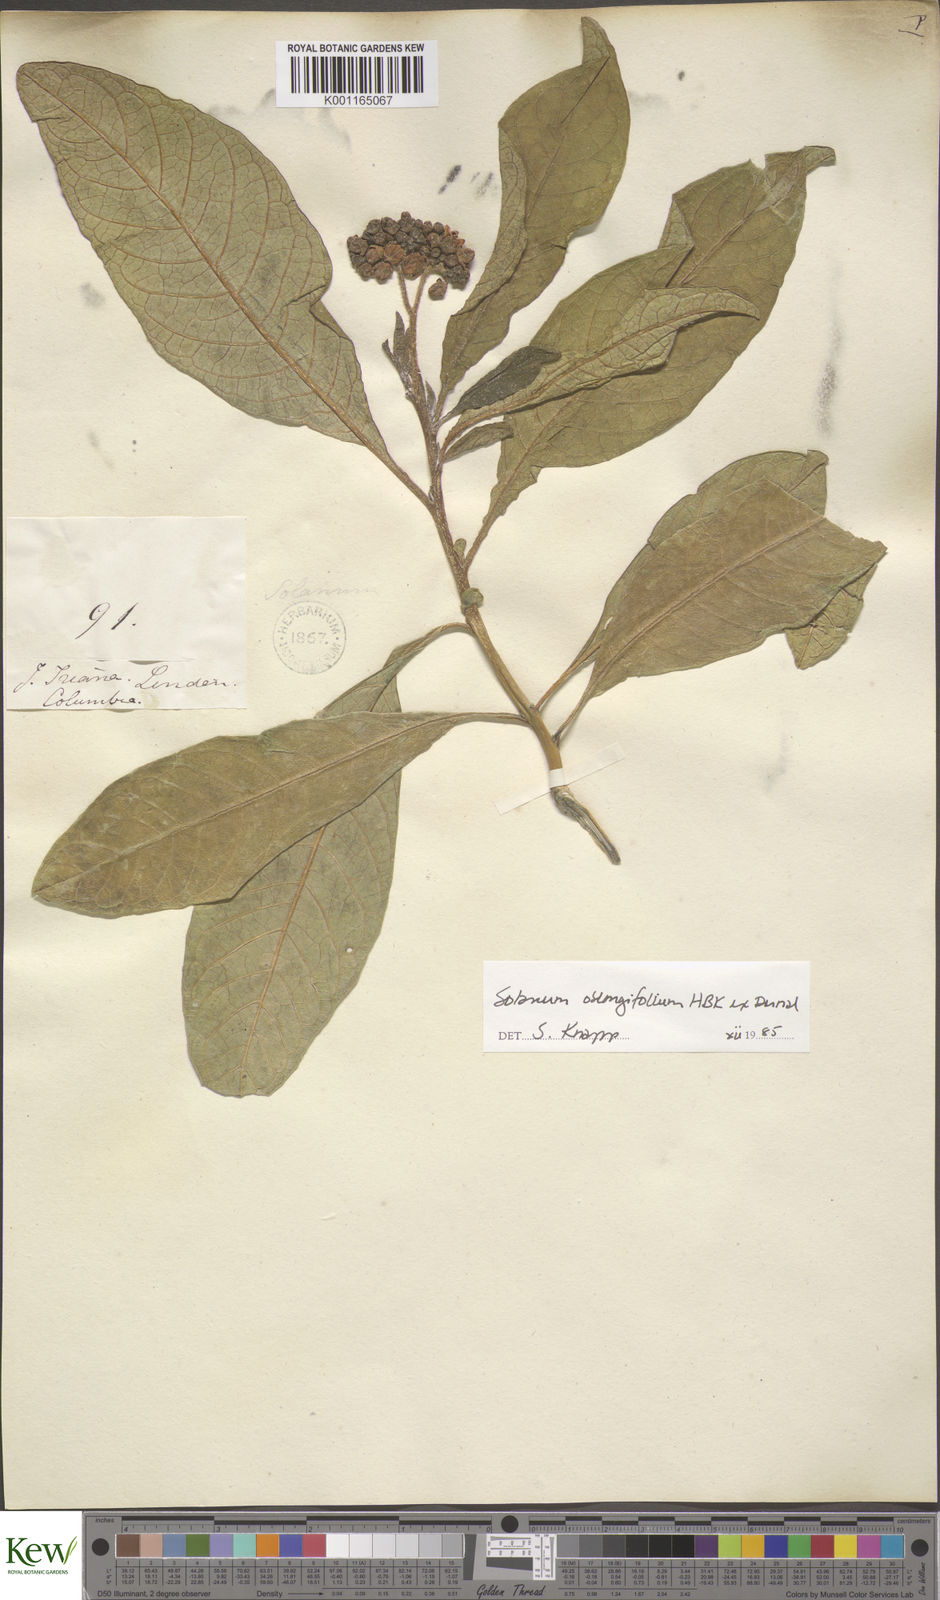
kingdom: Plantae
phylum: Tracheophyta
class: Magnoliopsida
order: Solanales
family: Solanaceae
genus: Solanum
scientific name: Solanum oblongifolium
